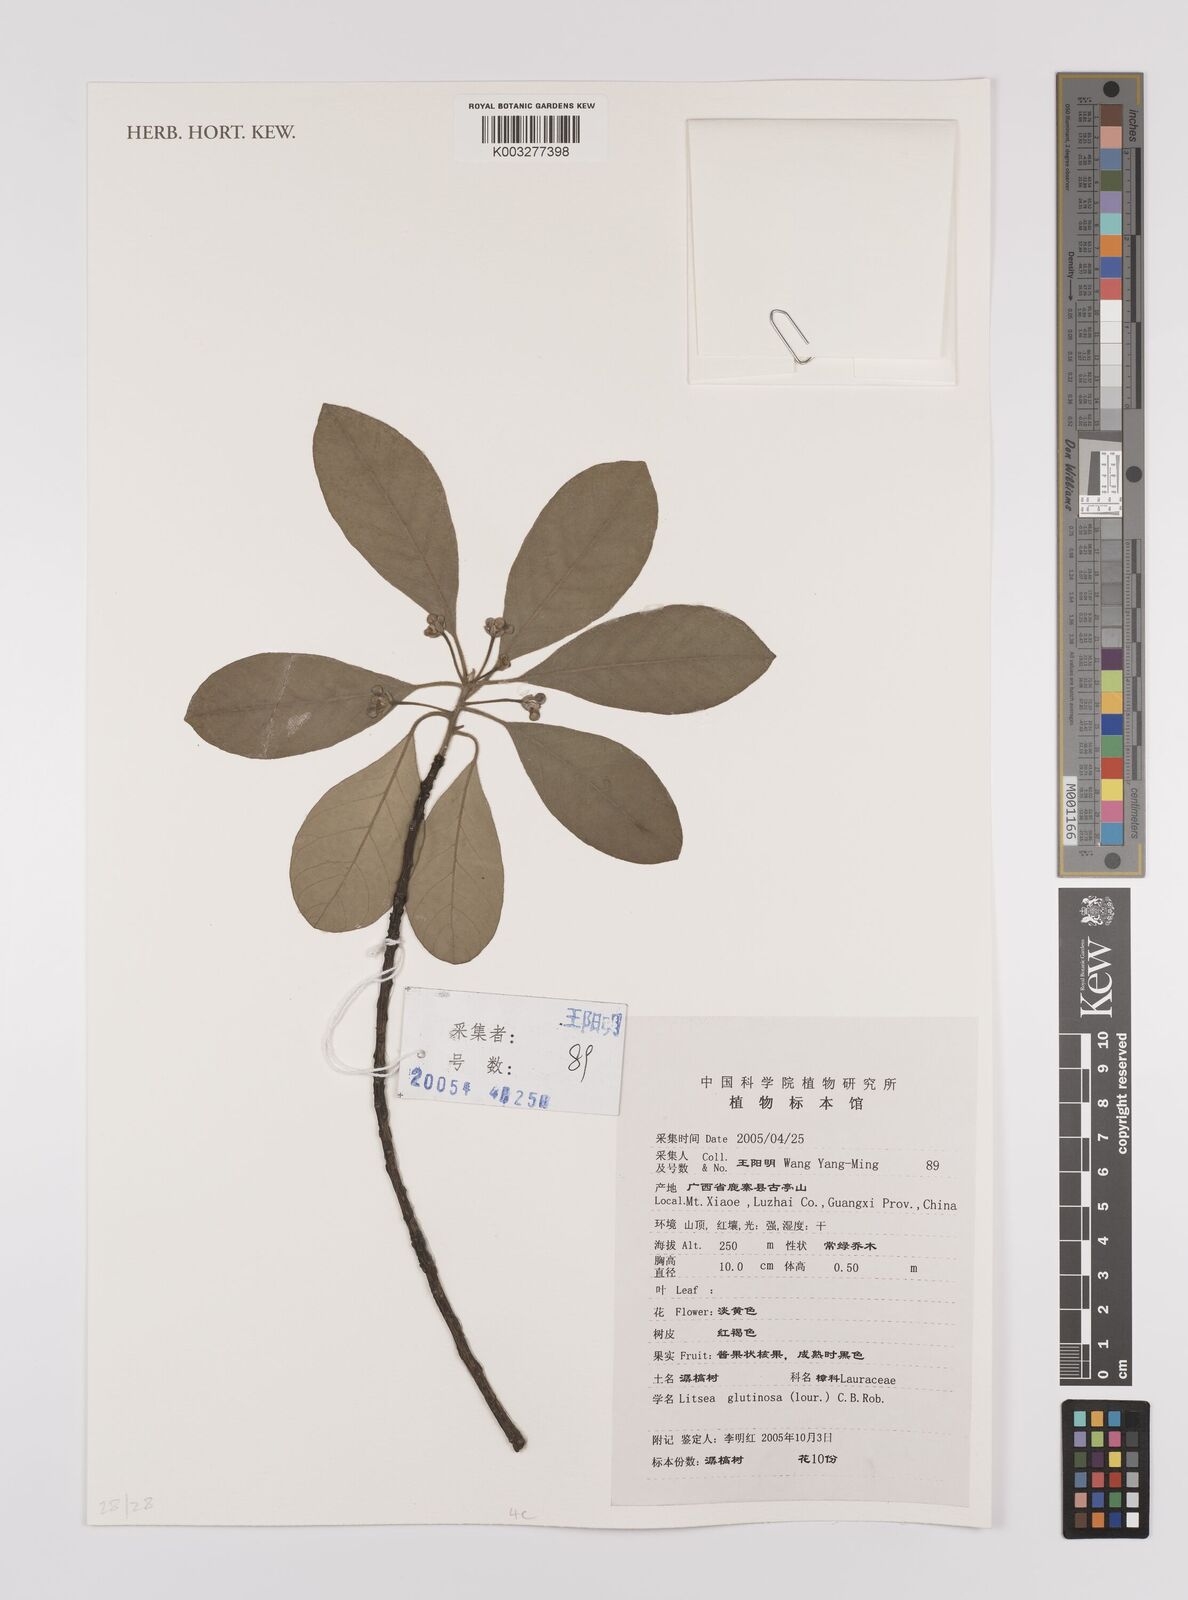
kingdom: Plantae
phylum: Tracheophyta
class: Magnoliopsida
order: Laurales
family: Lauraceae
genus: Litsea
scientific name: Litsea glutinosa
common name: Indian-laurel
